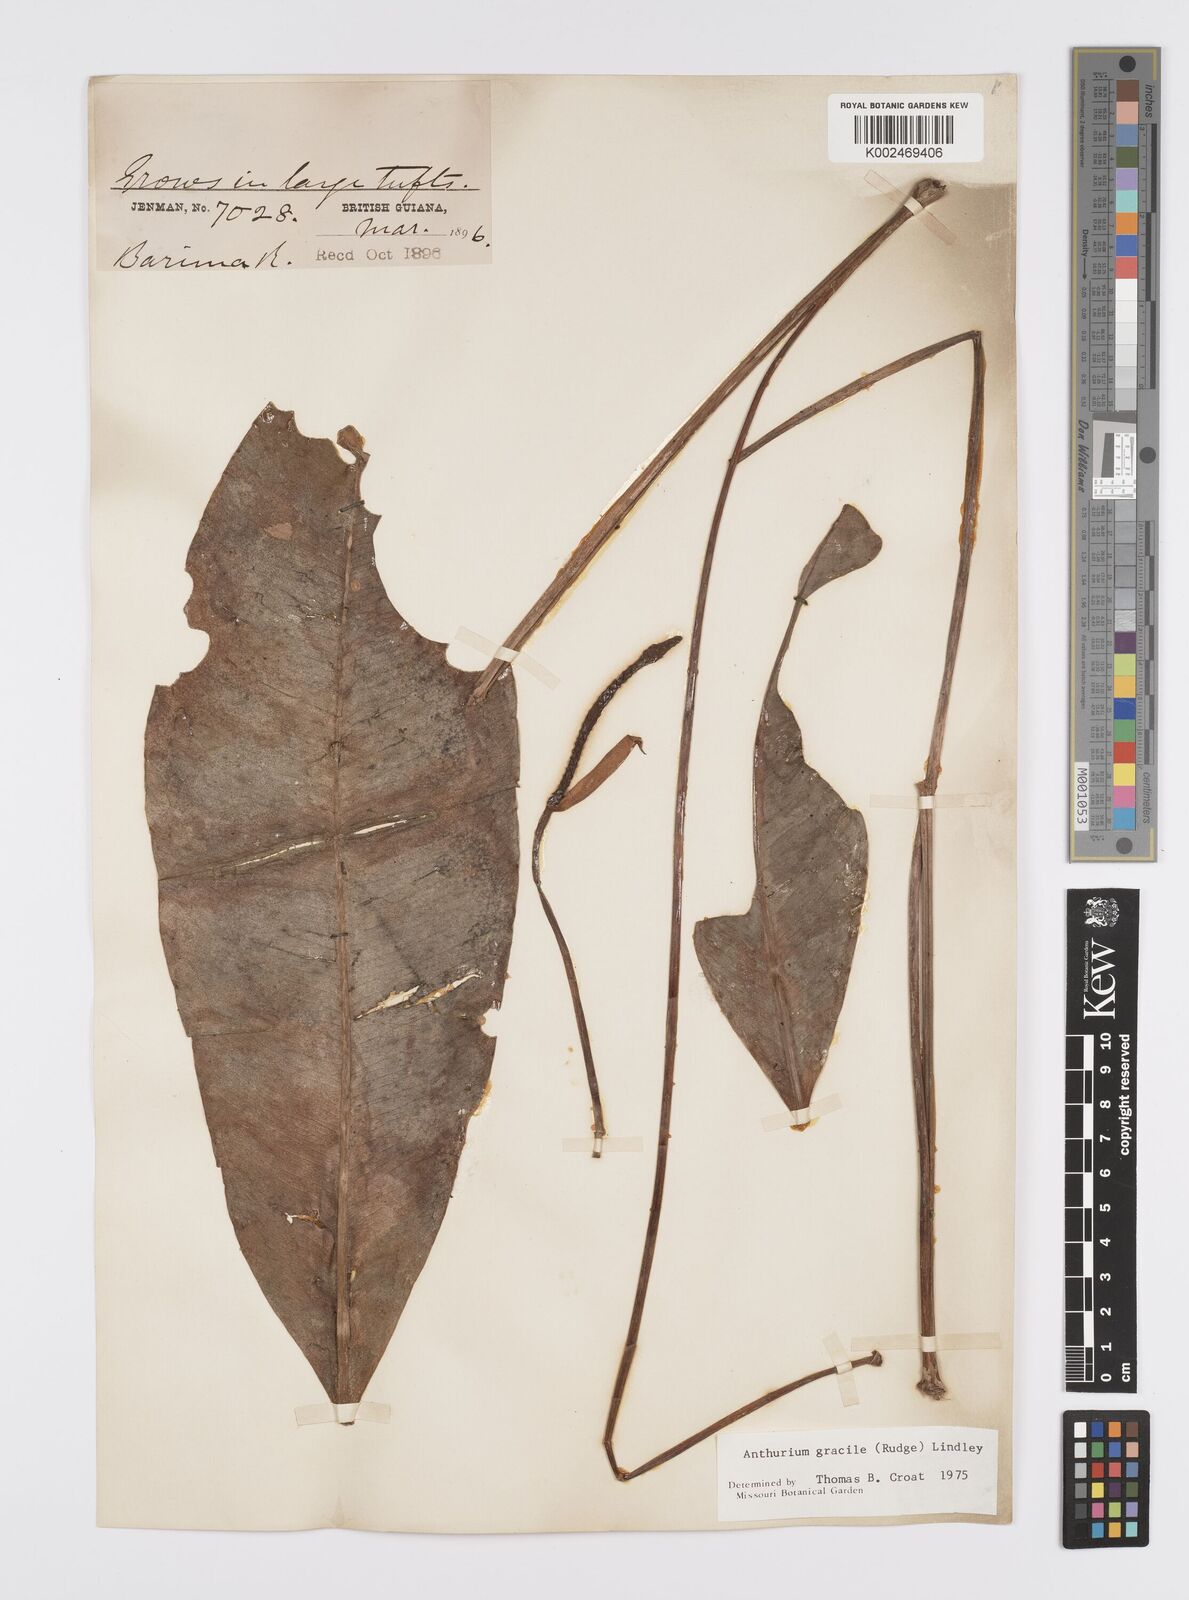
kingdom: Plantae
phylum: Tracheophyta
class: Liliopsida
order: Alismatales
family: Araceae
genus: Anthurium
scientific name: Anthurium gracile
